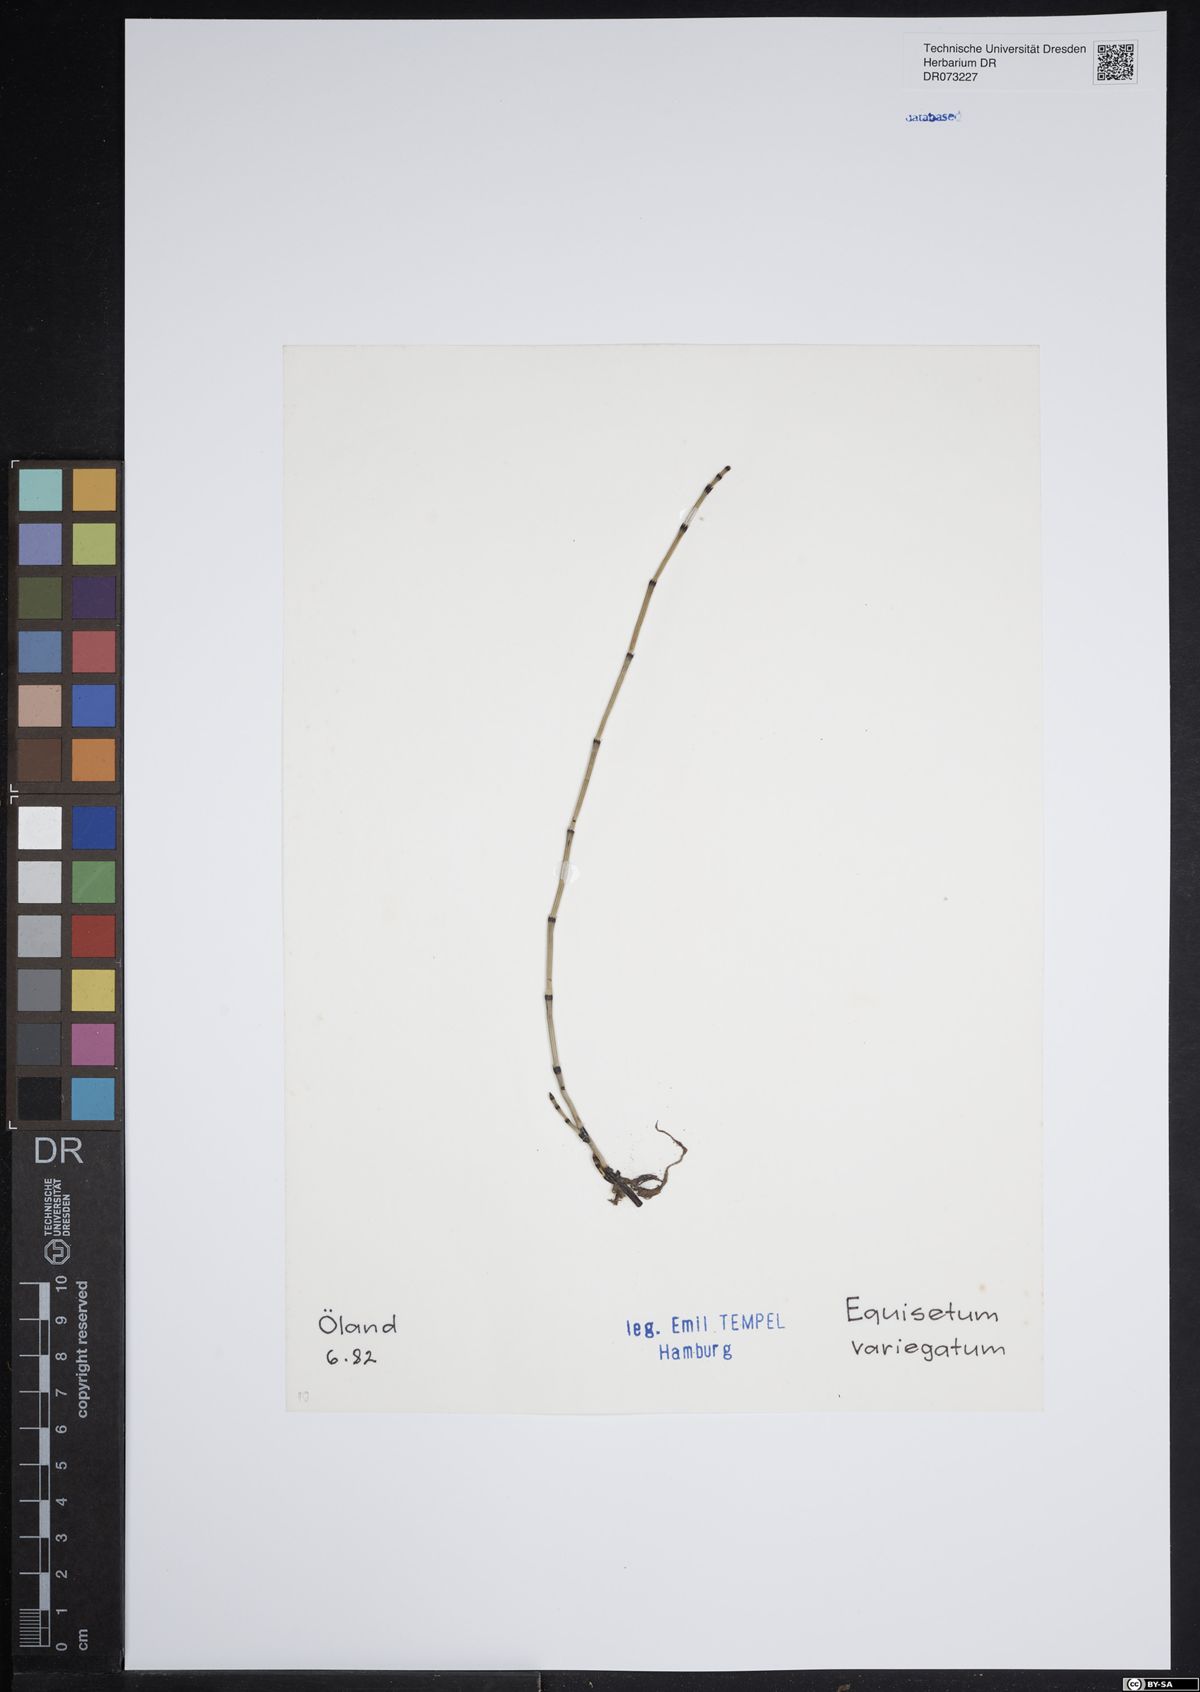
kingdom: Plantae
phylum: Tracheophyta
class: Polypodiopsida
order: Equisetales
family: Equisetaceae
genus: Equisetum
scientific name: Equisetum variegatum
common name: Variegated horsetail
